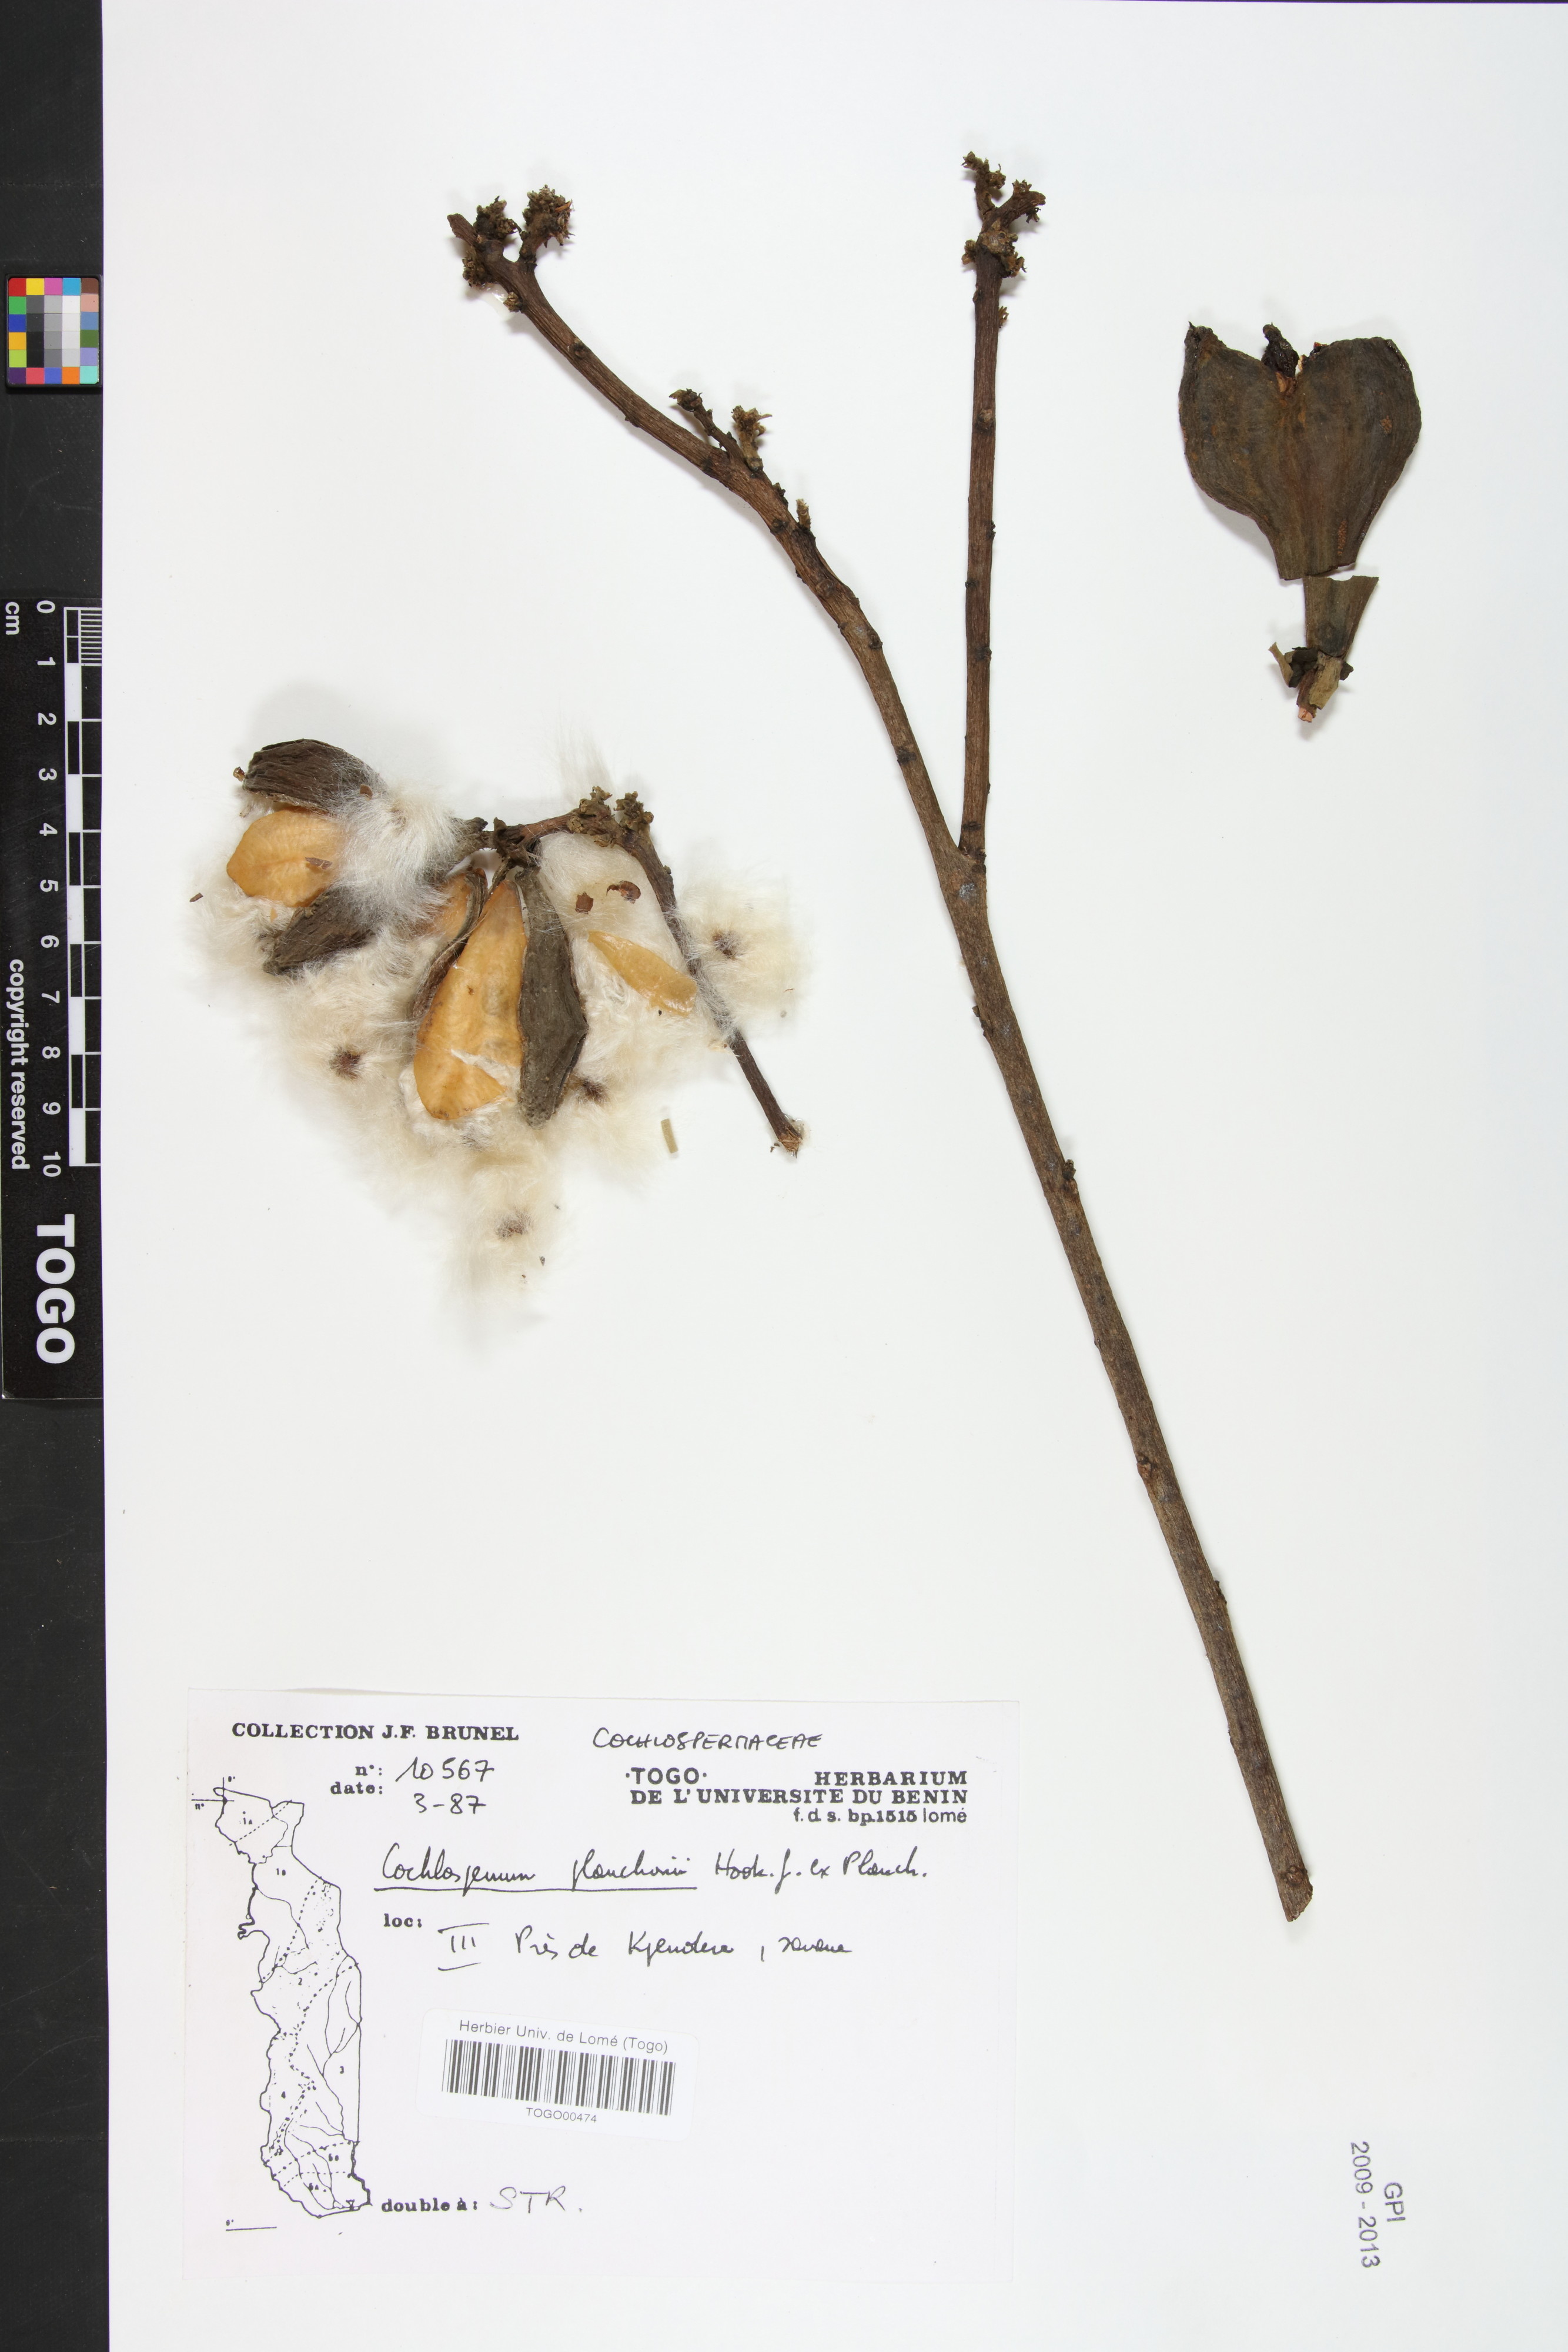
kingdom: Plantae
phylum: Tracheophyta
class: Magnoliopsida
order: Malvales
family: Cochlospermaceae
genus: Cochlospermum
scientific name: Cochlospermum planchonii
